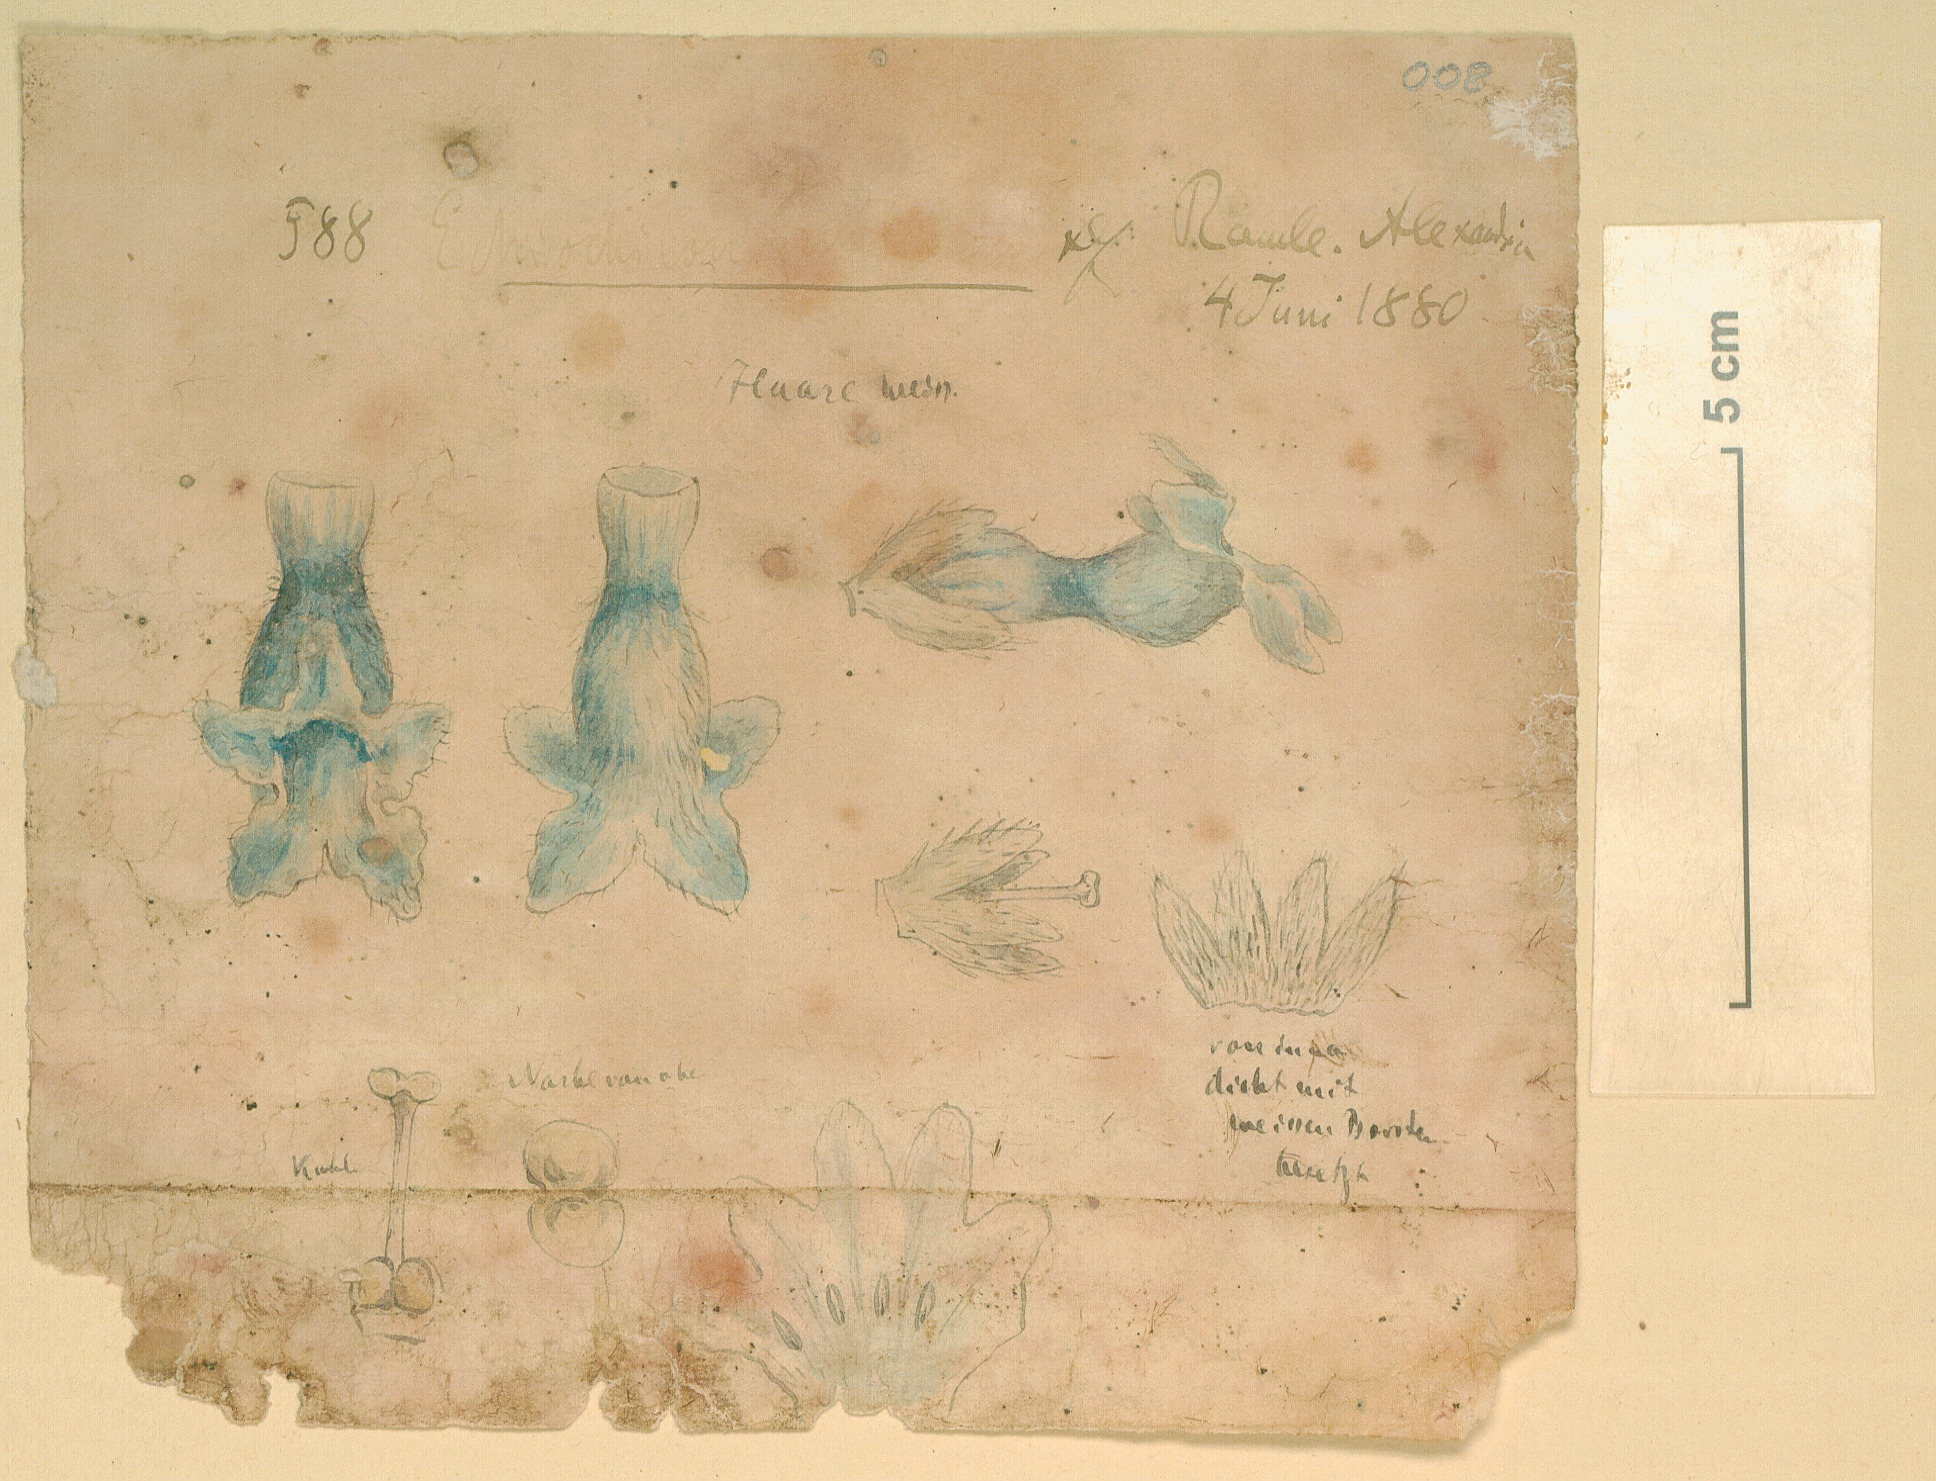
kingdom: Plantae
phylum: Tracheophyta
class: Magnoliopsida
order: Boraginales
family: Boraginaceae
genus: Echiochilon
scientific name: Echiochilon
